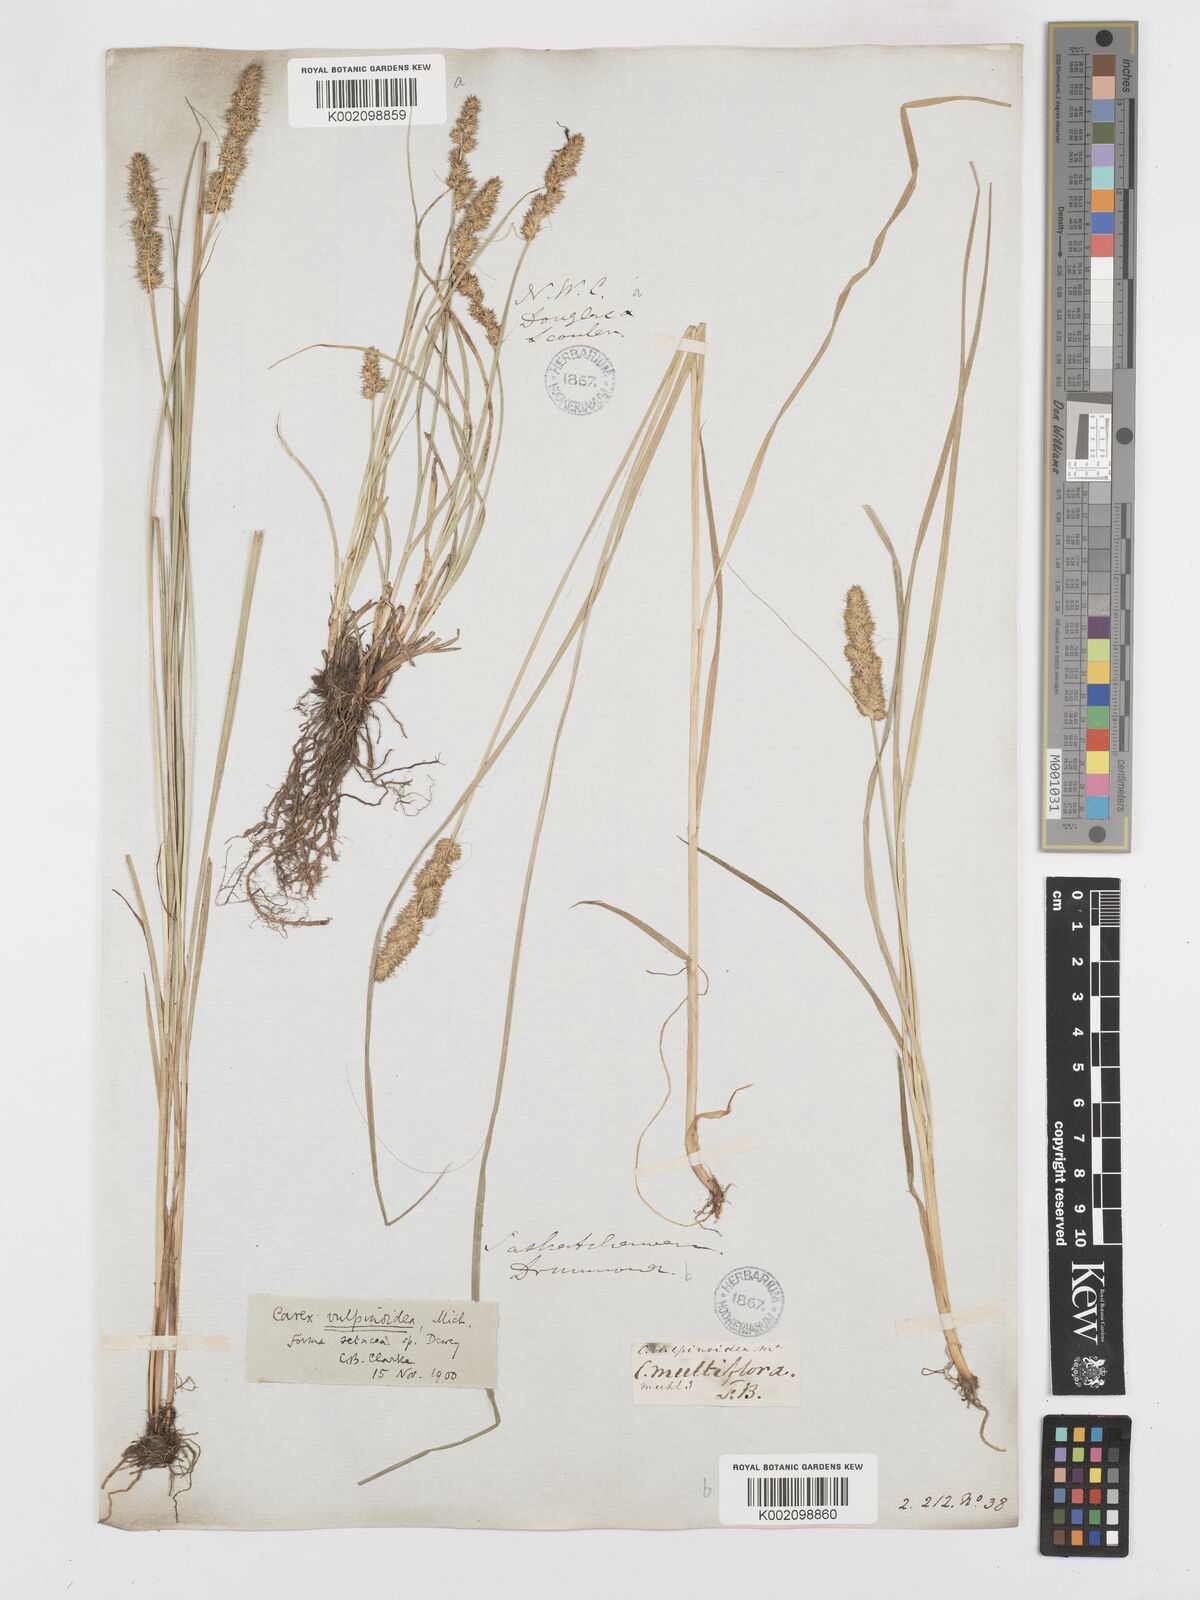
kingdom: Plantae
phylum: Tracheophyta
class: Liliopsida
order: Poales
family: Cyperaceae
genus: Carex
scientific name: Carex vulpinoidea
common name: American fox-sedge
